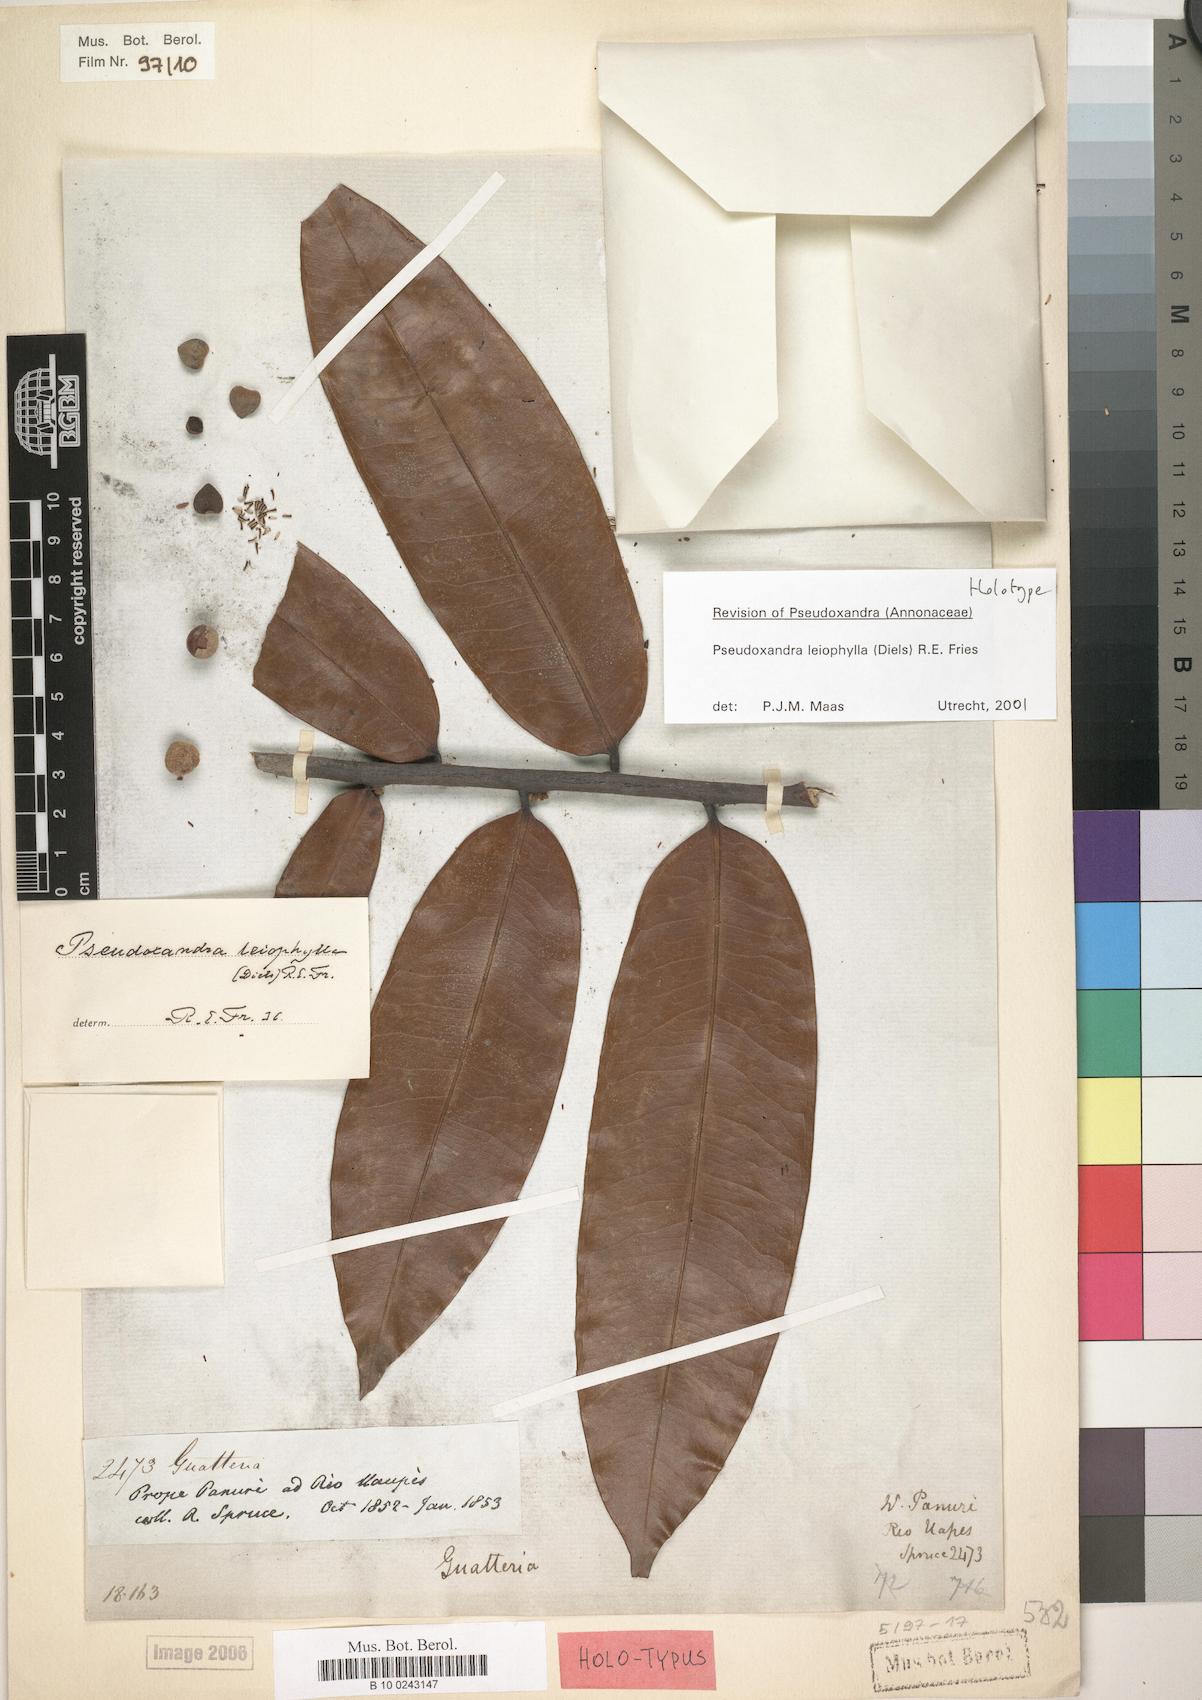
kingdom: Plantae
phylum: Tracheophyta
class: Magnoliopsida
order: Magnoliales
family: Annonaceae
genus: Pseudoxandra
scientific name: Pseudoxandra leiophylla
